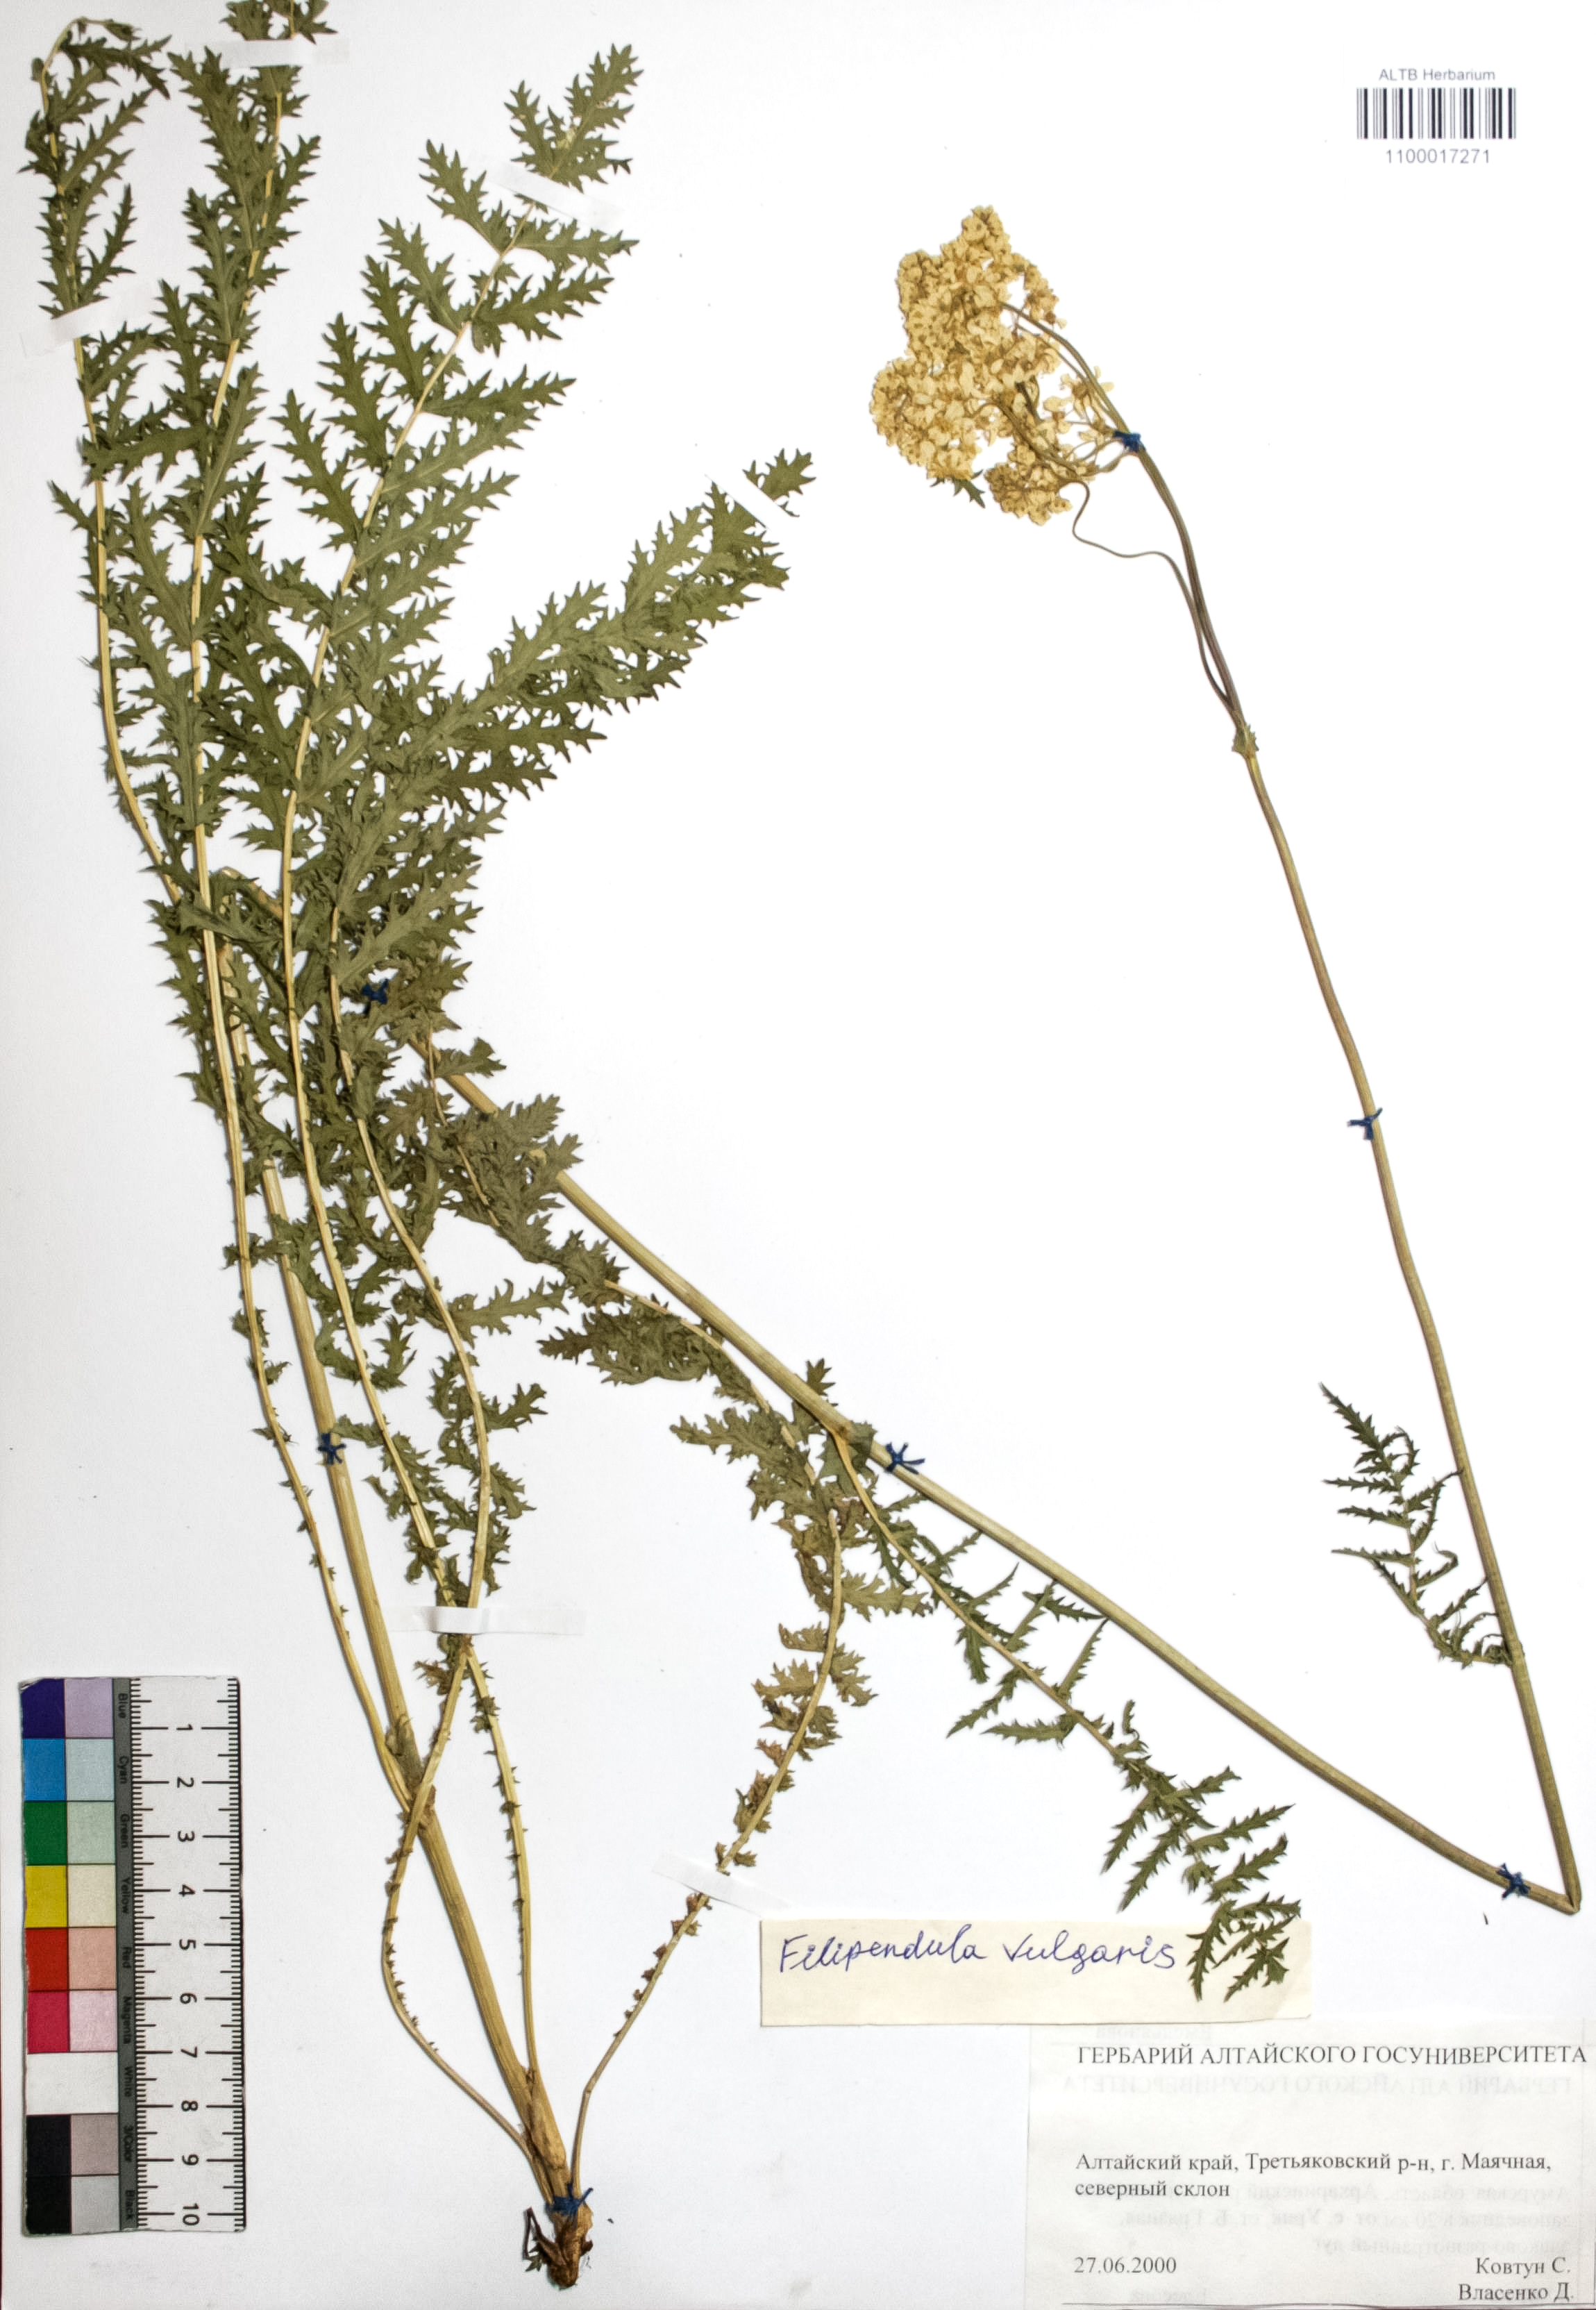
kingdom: Plantae
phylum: Tracheophyta
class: Magnoliopsida
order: Rosales
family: Rosaceae
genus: Filipendula
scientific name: Filipendula vulgaris
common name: Dropwort
